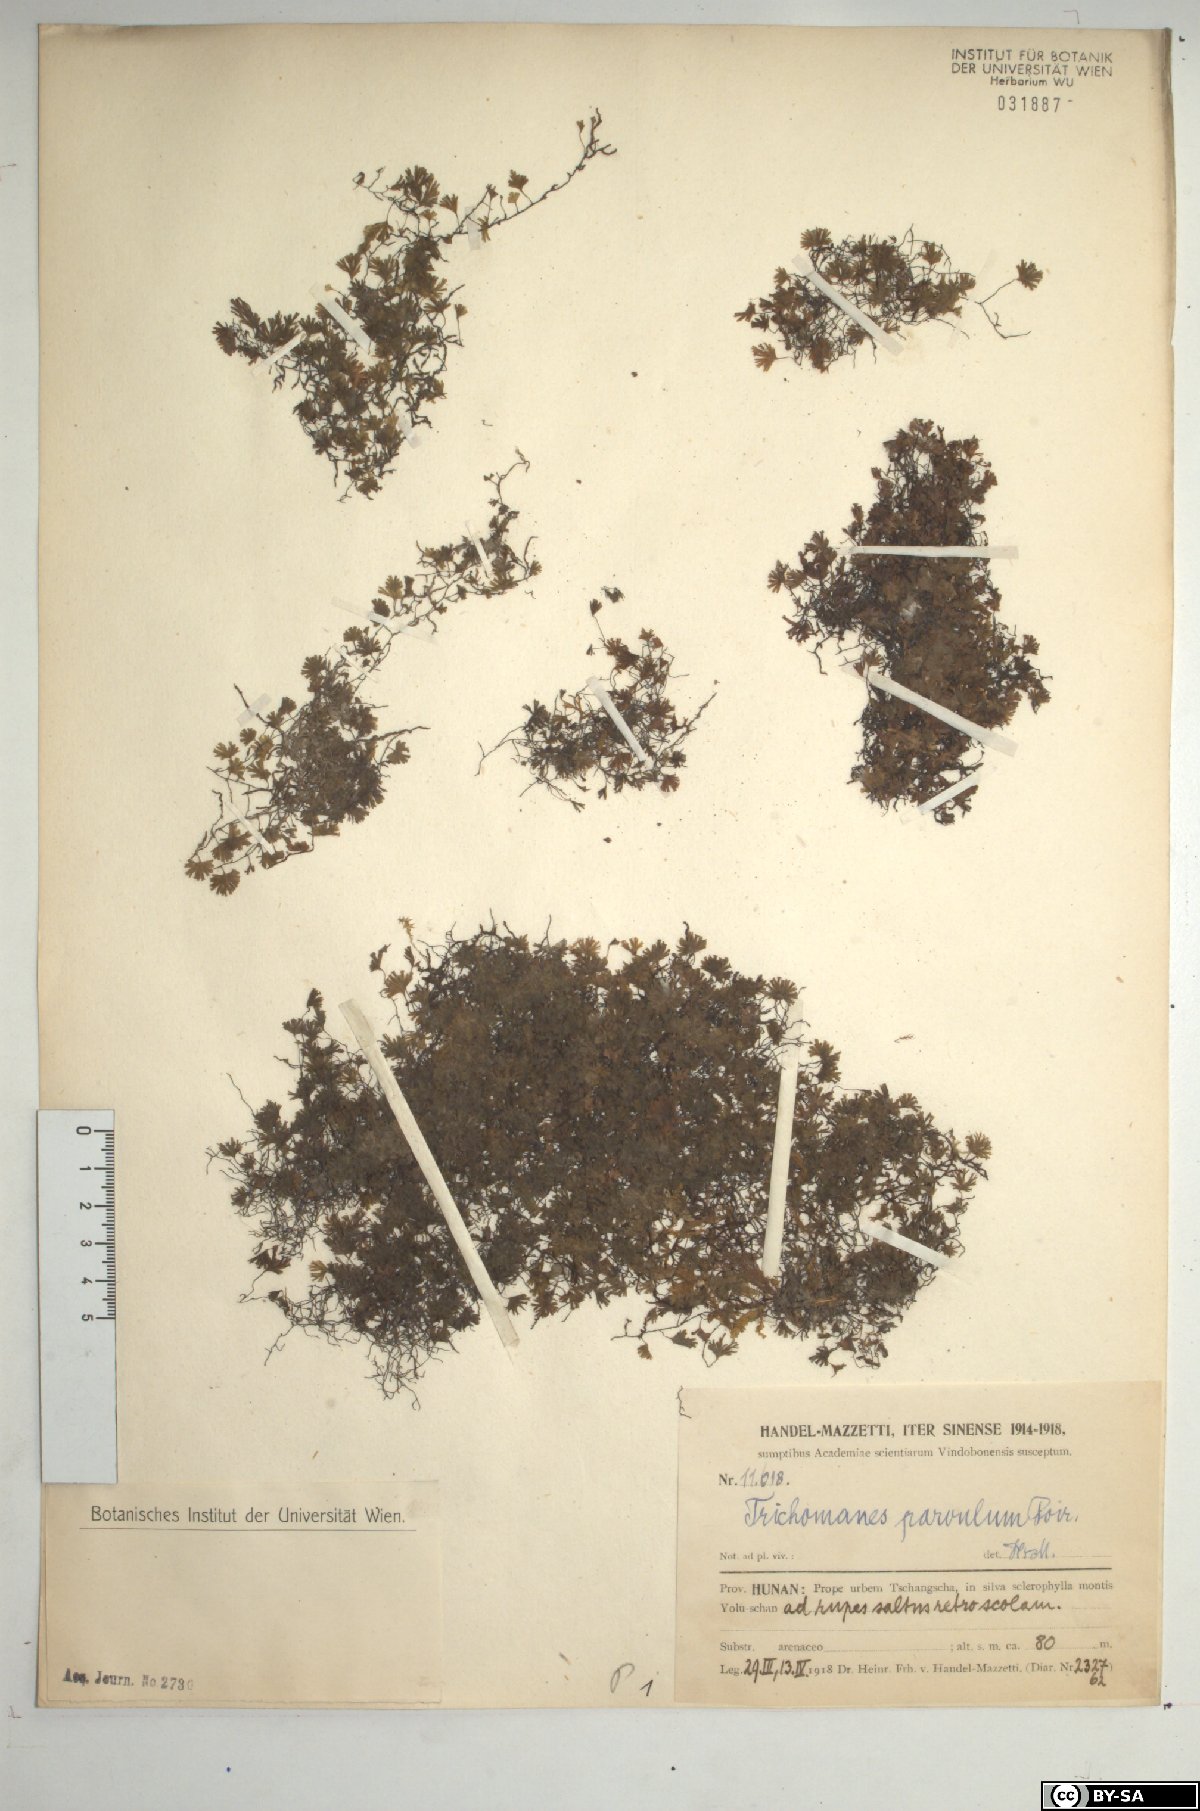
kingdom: Plantae
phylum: Tracheophyta
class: Polypodiopsida
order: Hymenophyllales
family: Hymenophyllaceae
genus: Crepidomanes
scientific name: Crepidomanes parvulum
